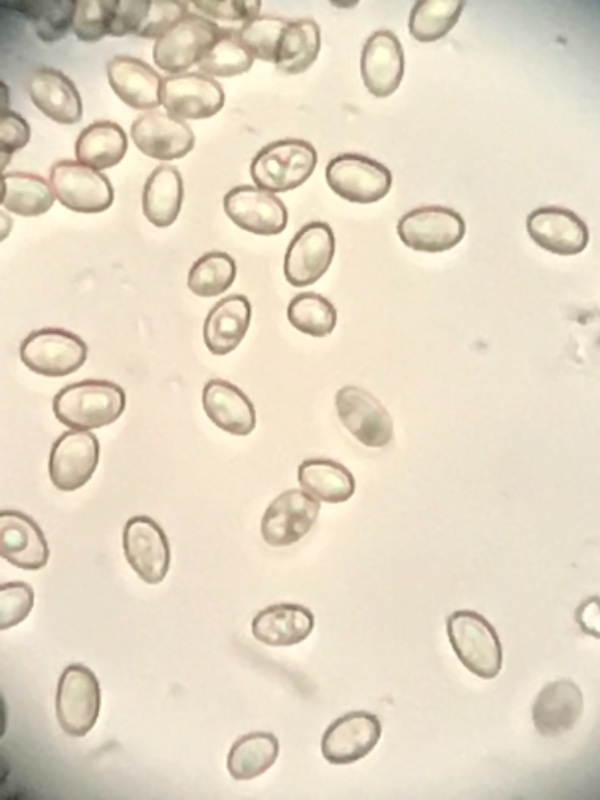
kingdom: Fungi
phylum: Basidiomycota
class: Agaricomycetes
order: Agaricales
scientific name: Agaricales
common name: champignonordenen
